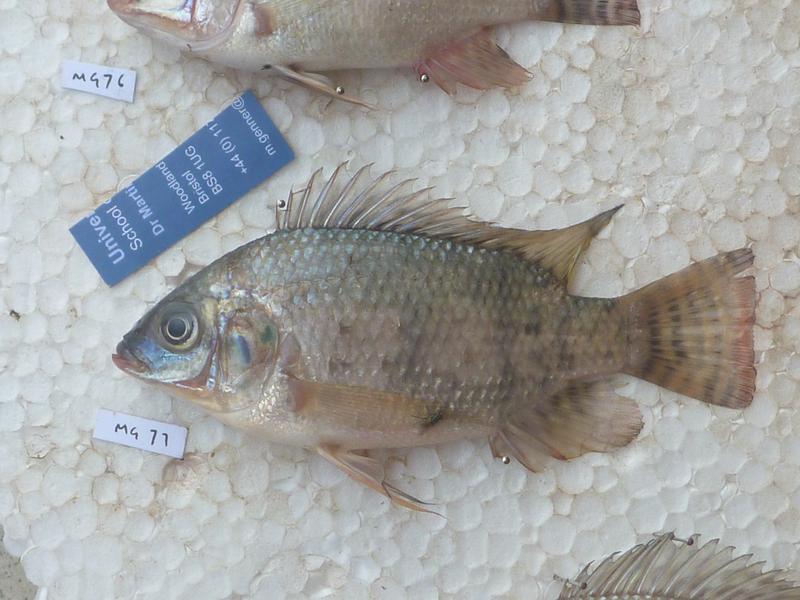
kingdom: Animalia
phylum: Chordata
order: Perciformes
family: Cichlidae
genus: Oreochromis
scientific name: Oreochromis niloticus
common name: Nile tilapia
